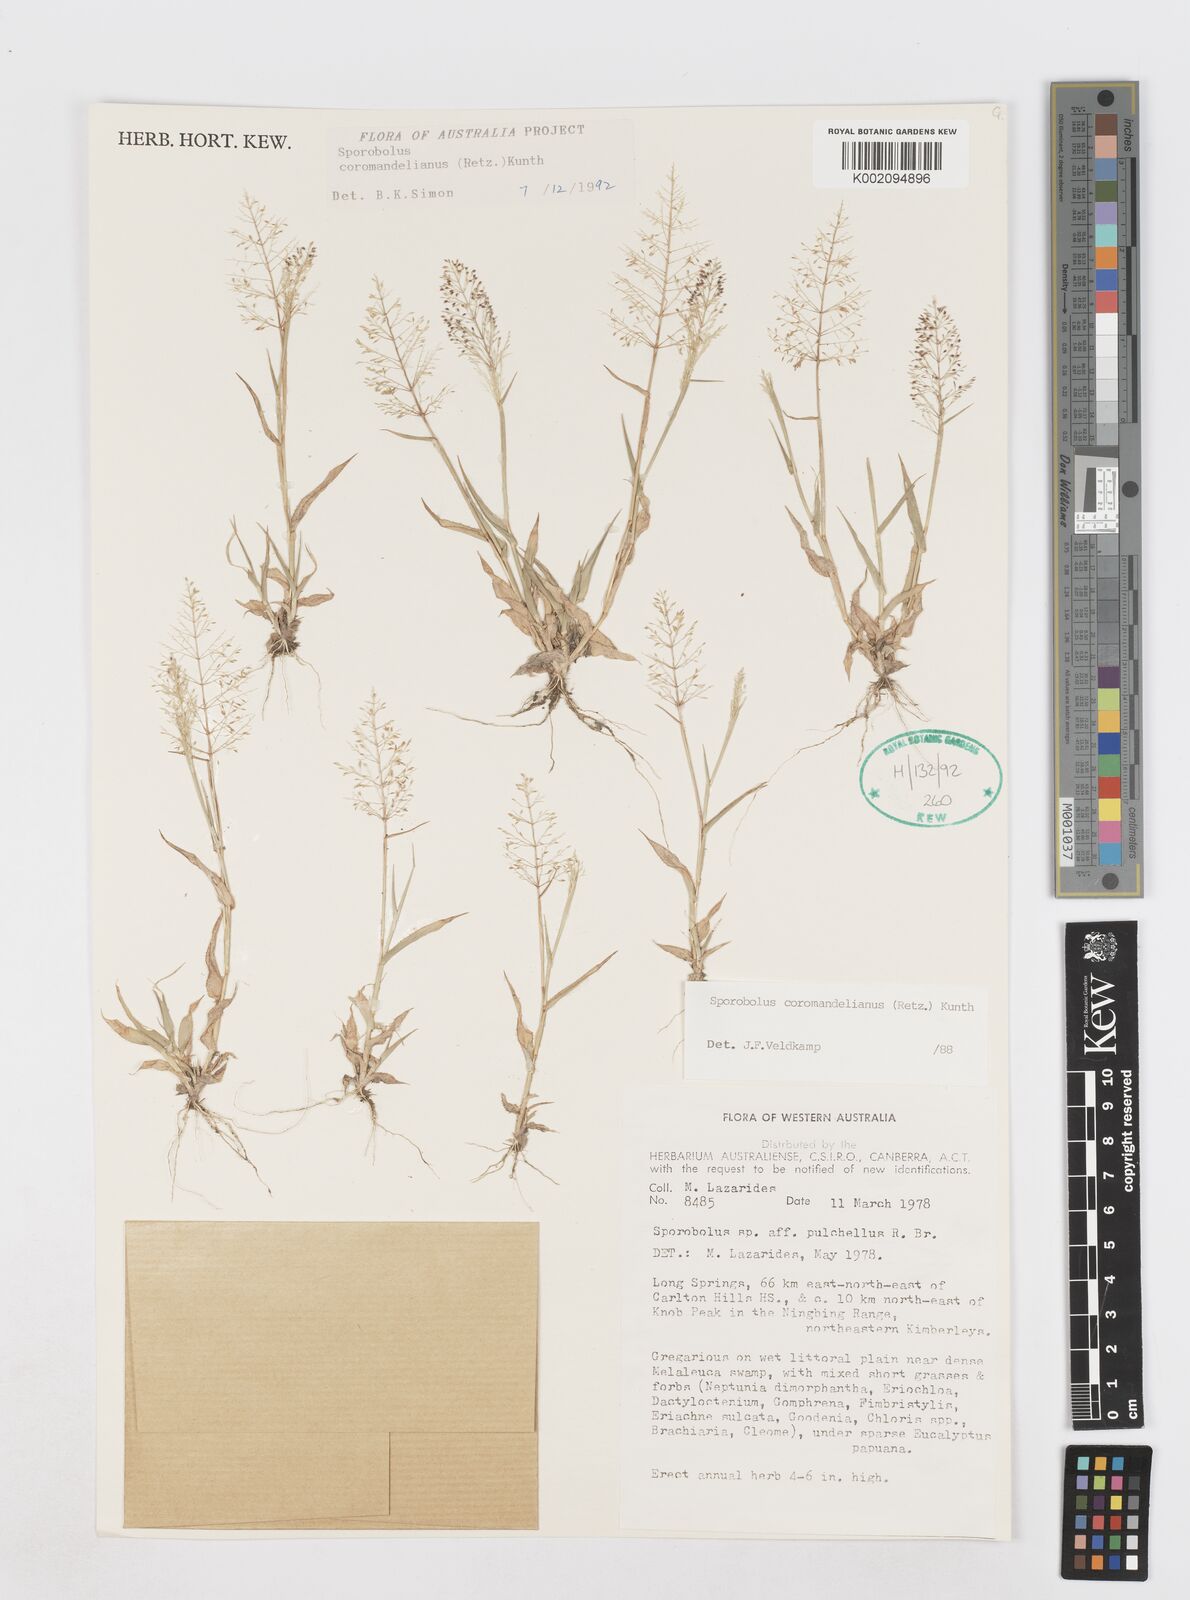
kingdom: Plantae
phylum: Tracheophyta
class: Liliopsida
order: Poales
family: Poaceae
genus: Sporobolus
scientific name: Sporobolus coromandelianus
